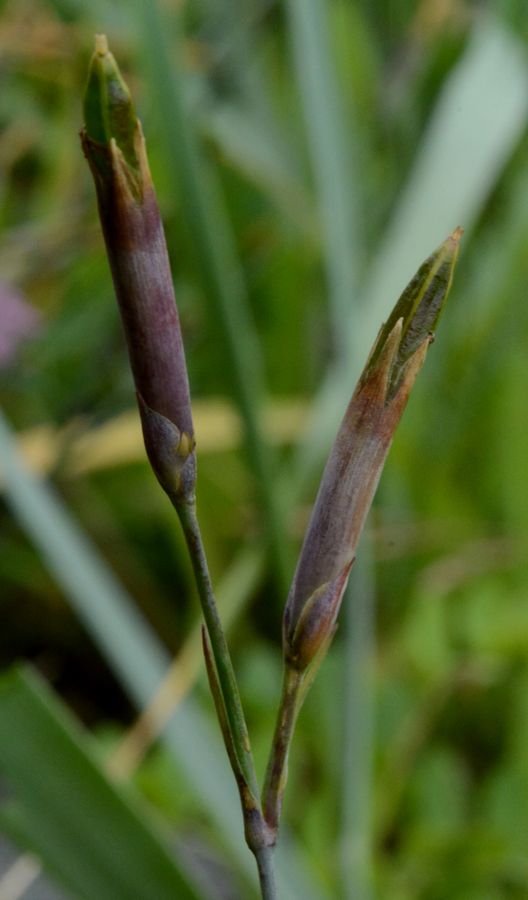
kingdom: Plantae
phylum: Tracheophyta
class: Magnoliopsida
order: Caryophyllales
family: Caryophyllaceae
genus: Dianthus
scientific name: Dianthus superbus
